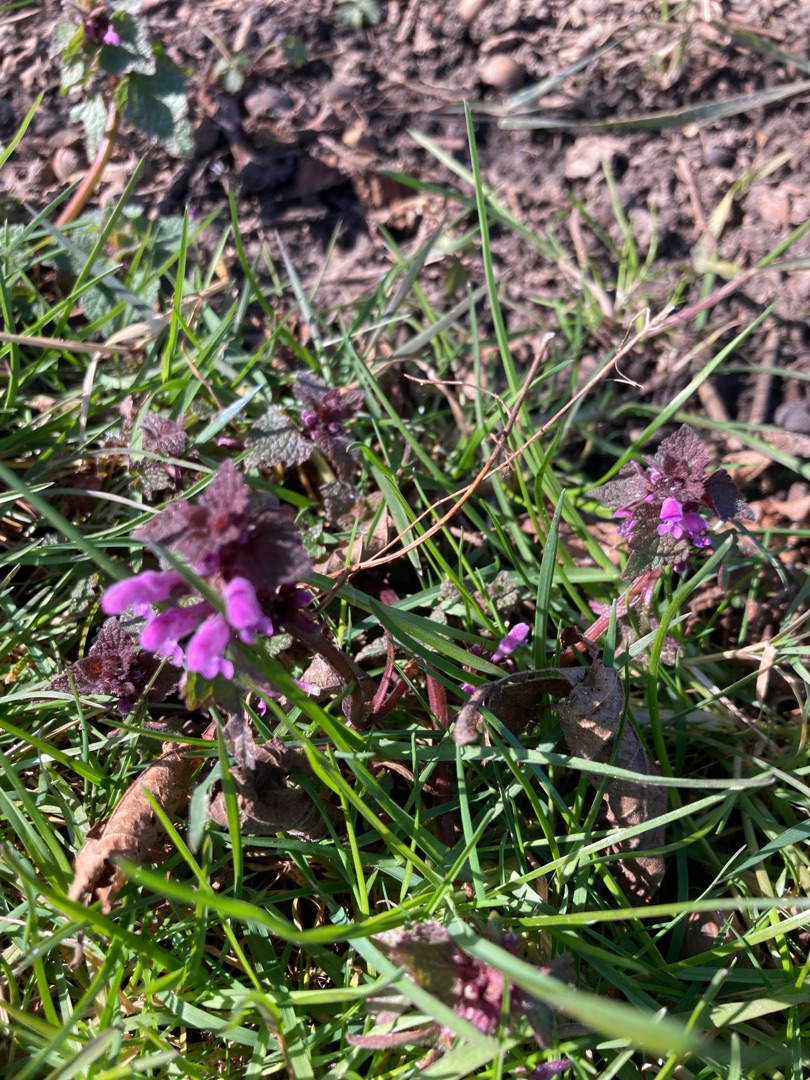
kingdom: Plantae
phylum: Tracheophyta
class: Magnoliopsida
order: Lamiales
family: Lamiaceae
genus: Lamium
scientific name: Lamium purpureum
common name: Rød tvetand
